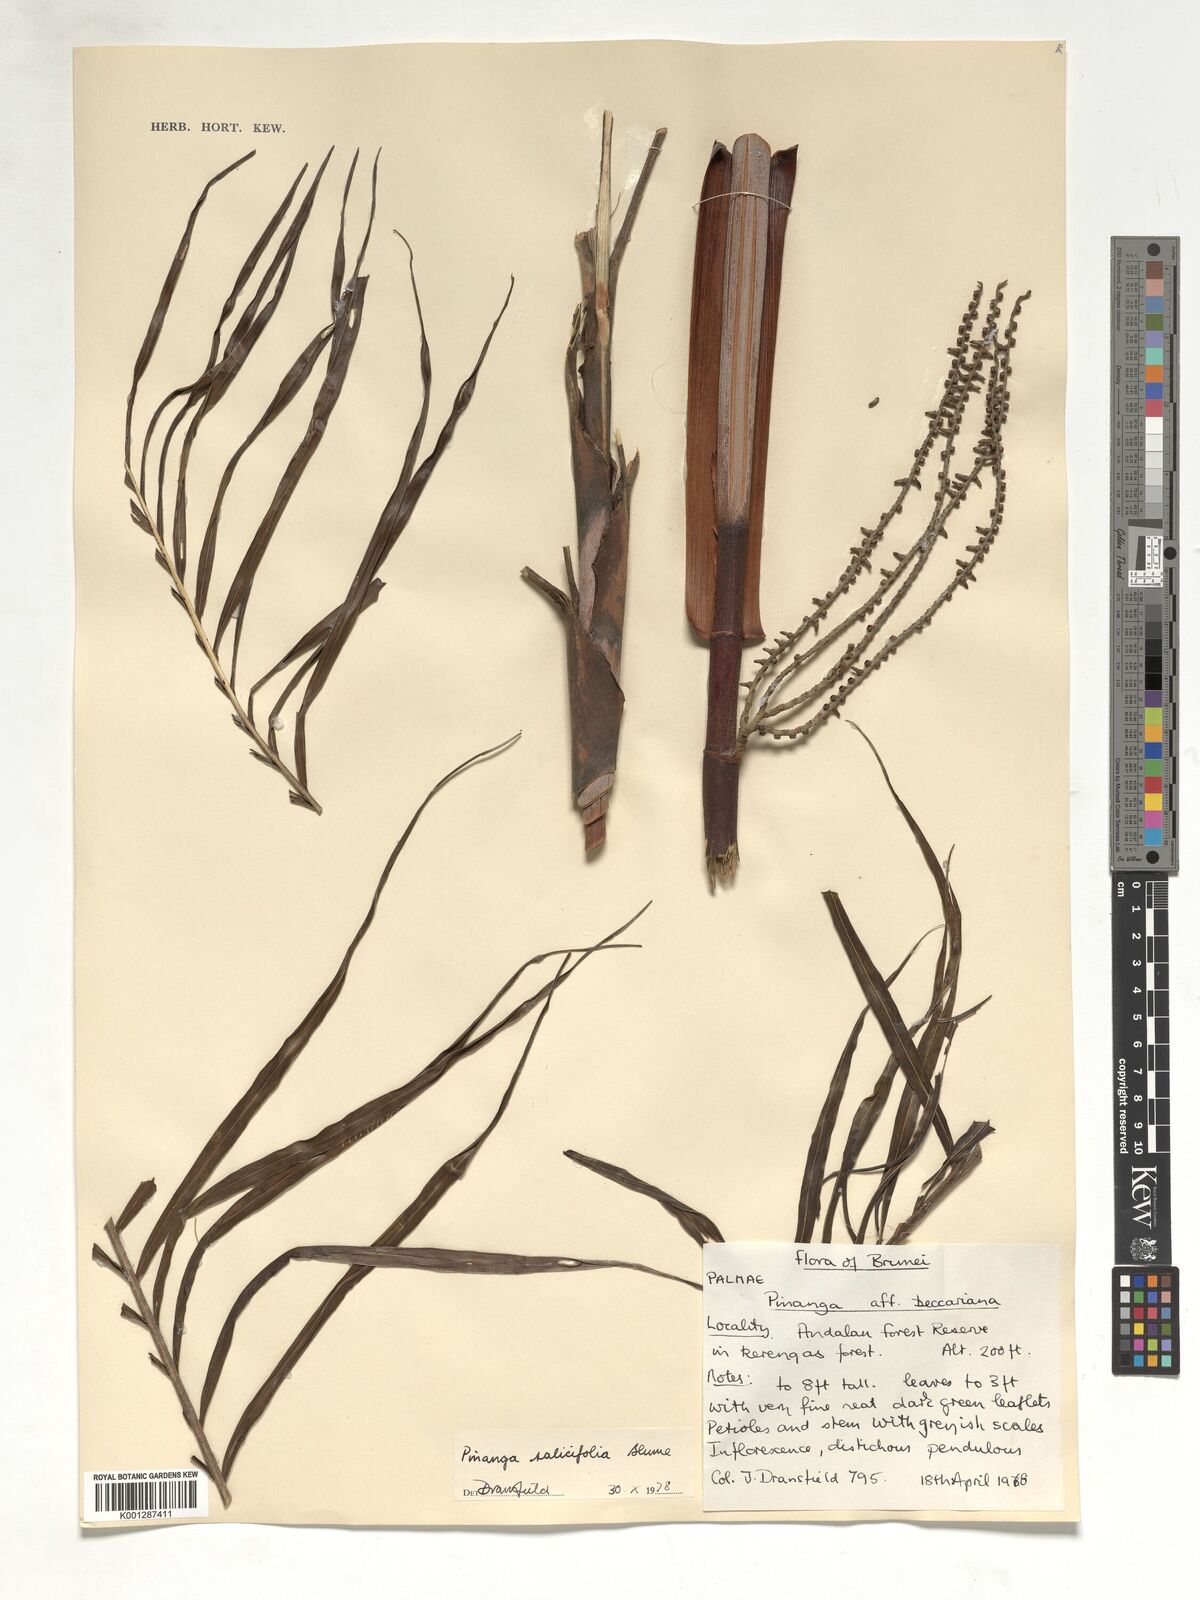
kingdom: Plantae
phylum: Tracheophyta
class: Liliopsida
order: Arecales
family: Arecaceae
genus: Pinanga
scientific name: Pinanga salicifolia
